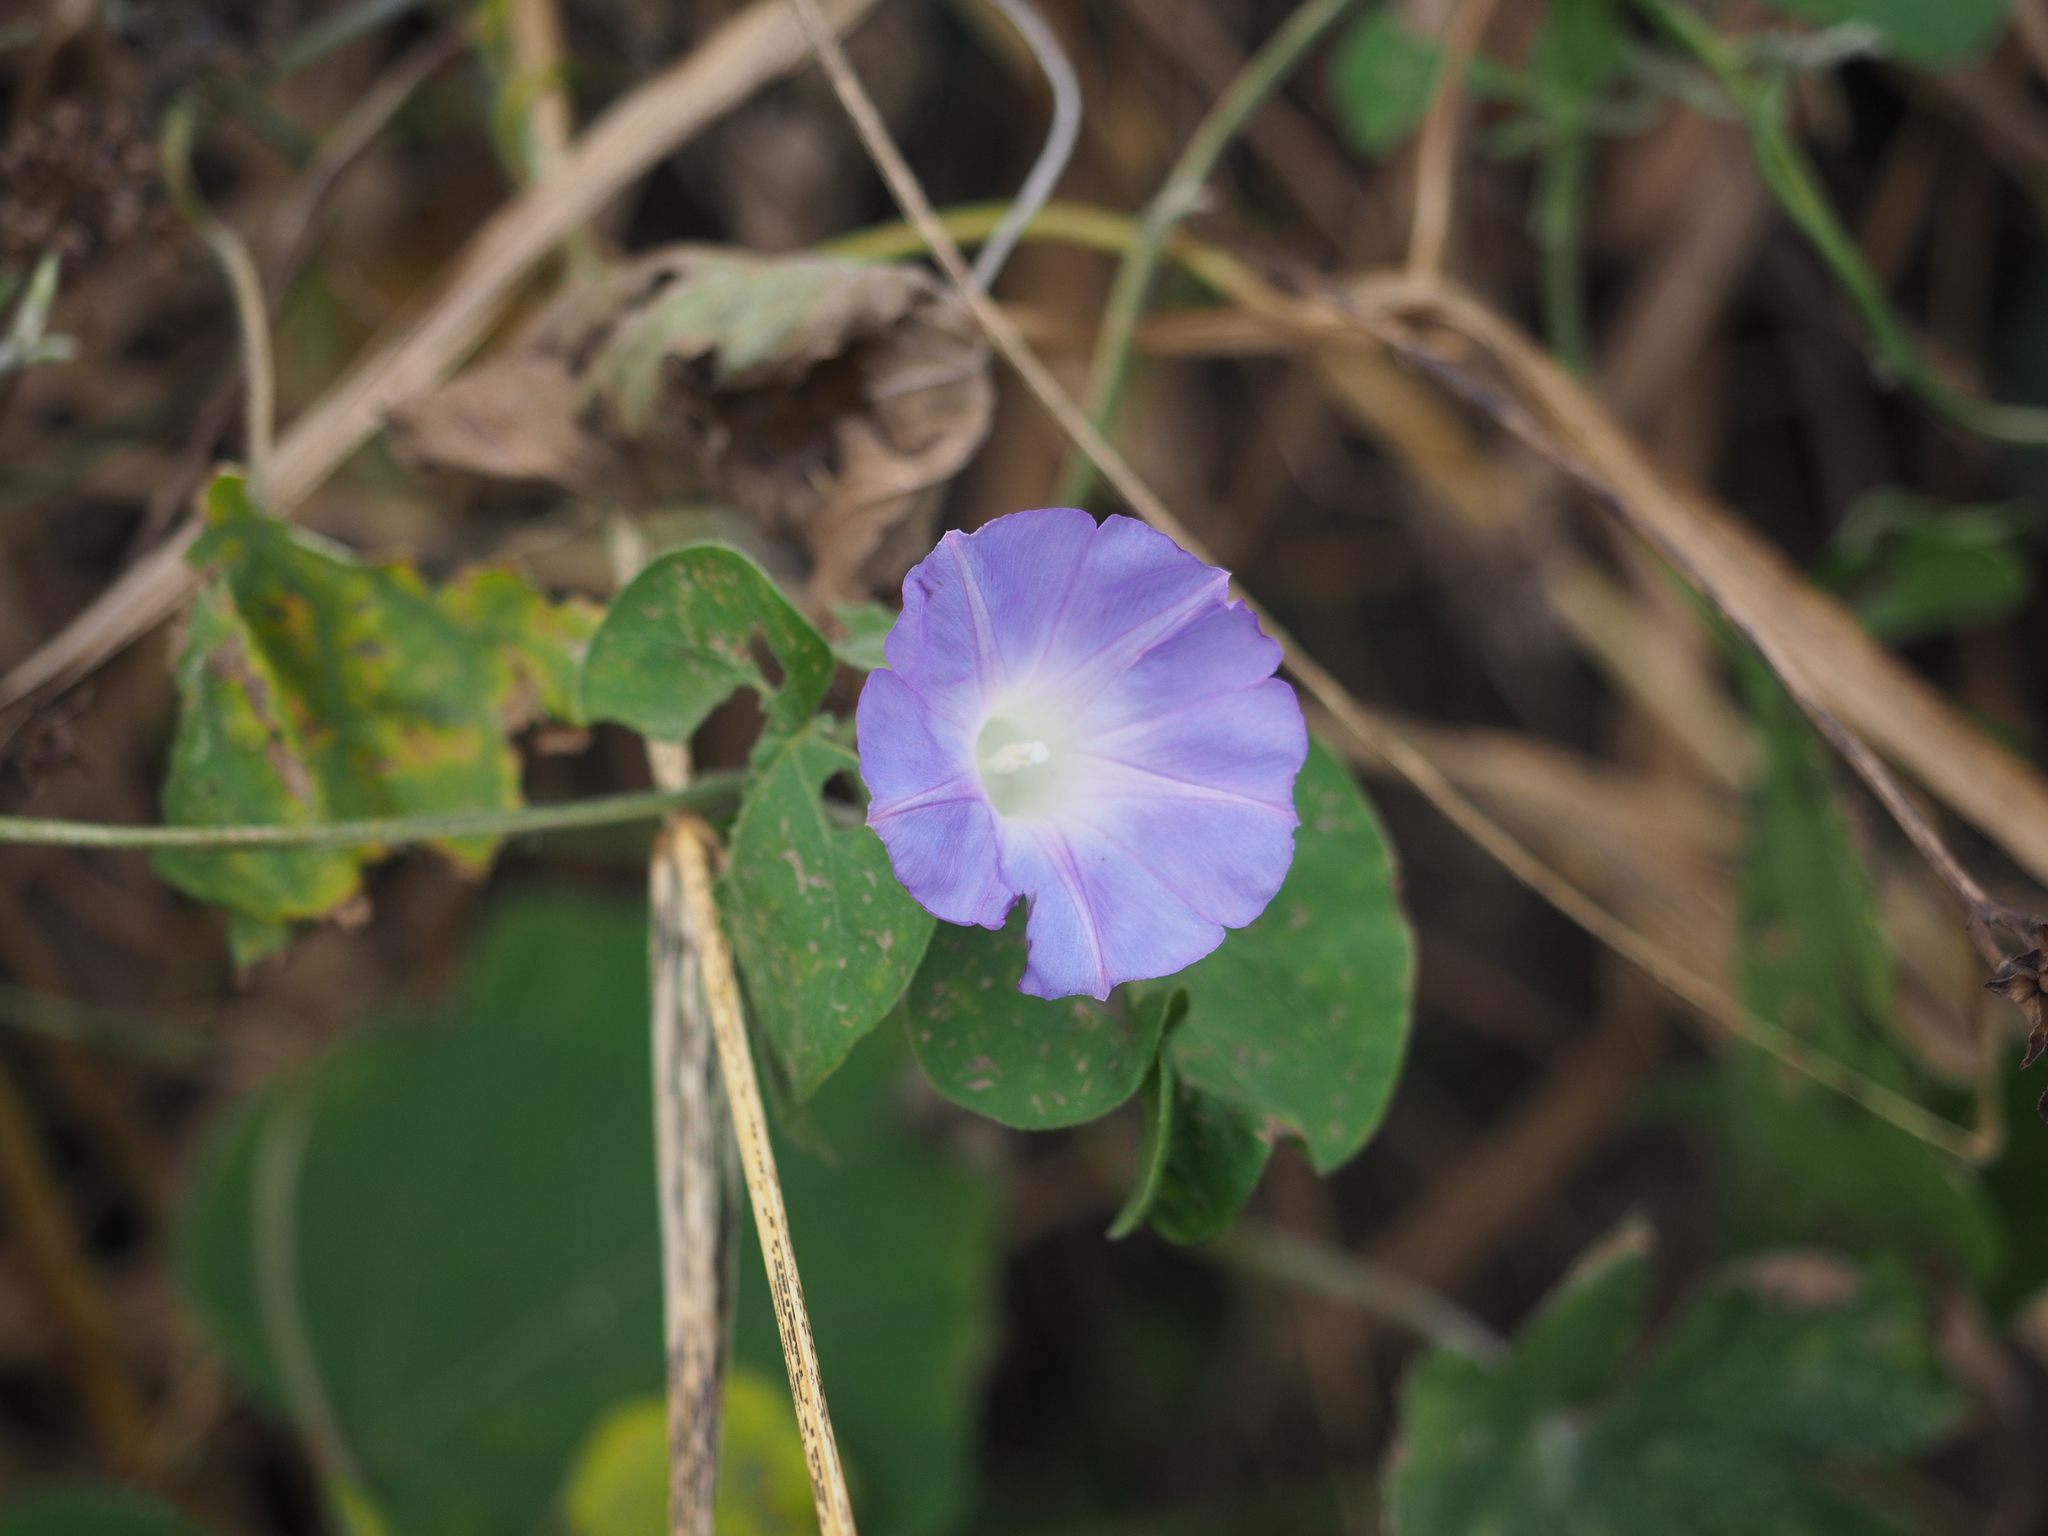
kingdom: Plantae
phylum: Tracheophyta
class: Magnoliopsida
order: Solanales
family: Convolvulaceae
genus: Ipomoea
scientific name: Ipomoea indica
